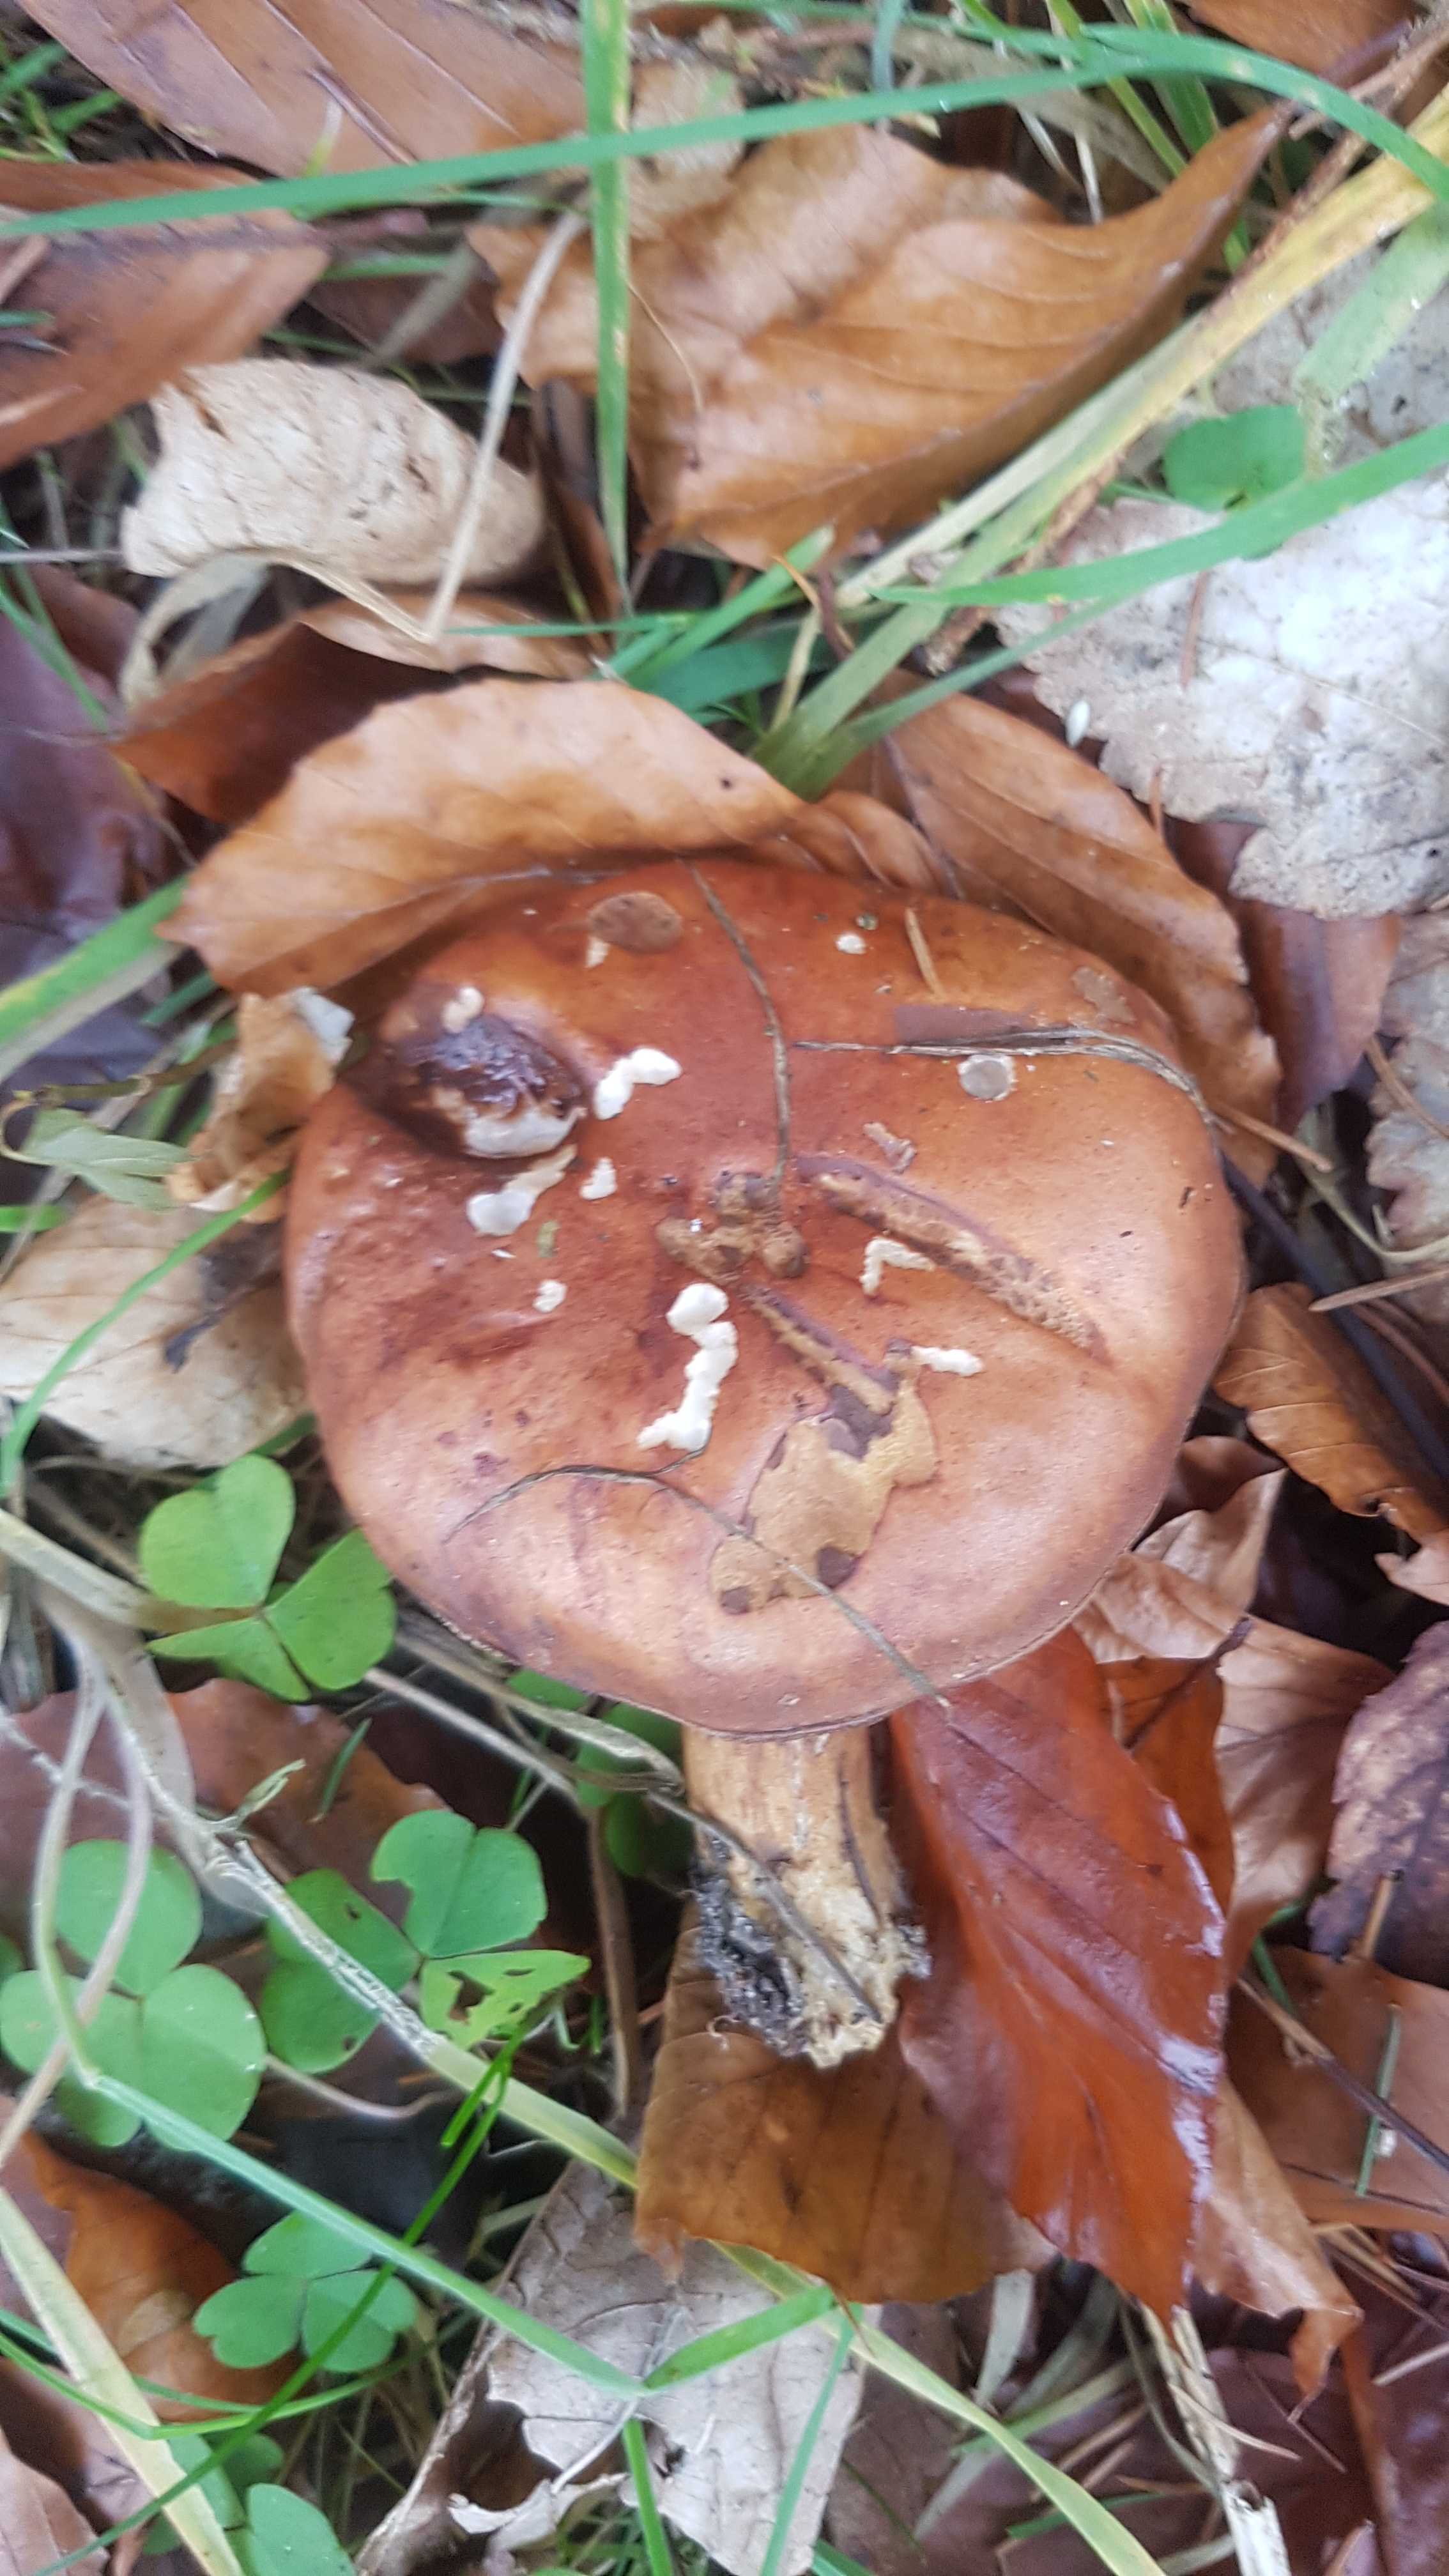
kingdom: Fungi
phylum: Basidiomycota
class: Agaricomycetes
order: Boletales
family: Boletaceae
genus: Imleria
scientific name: Imleria badia
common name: brunstokket rørhat
